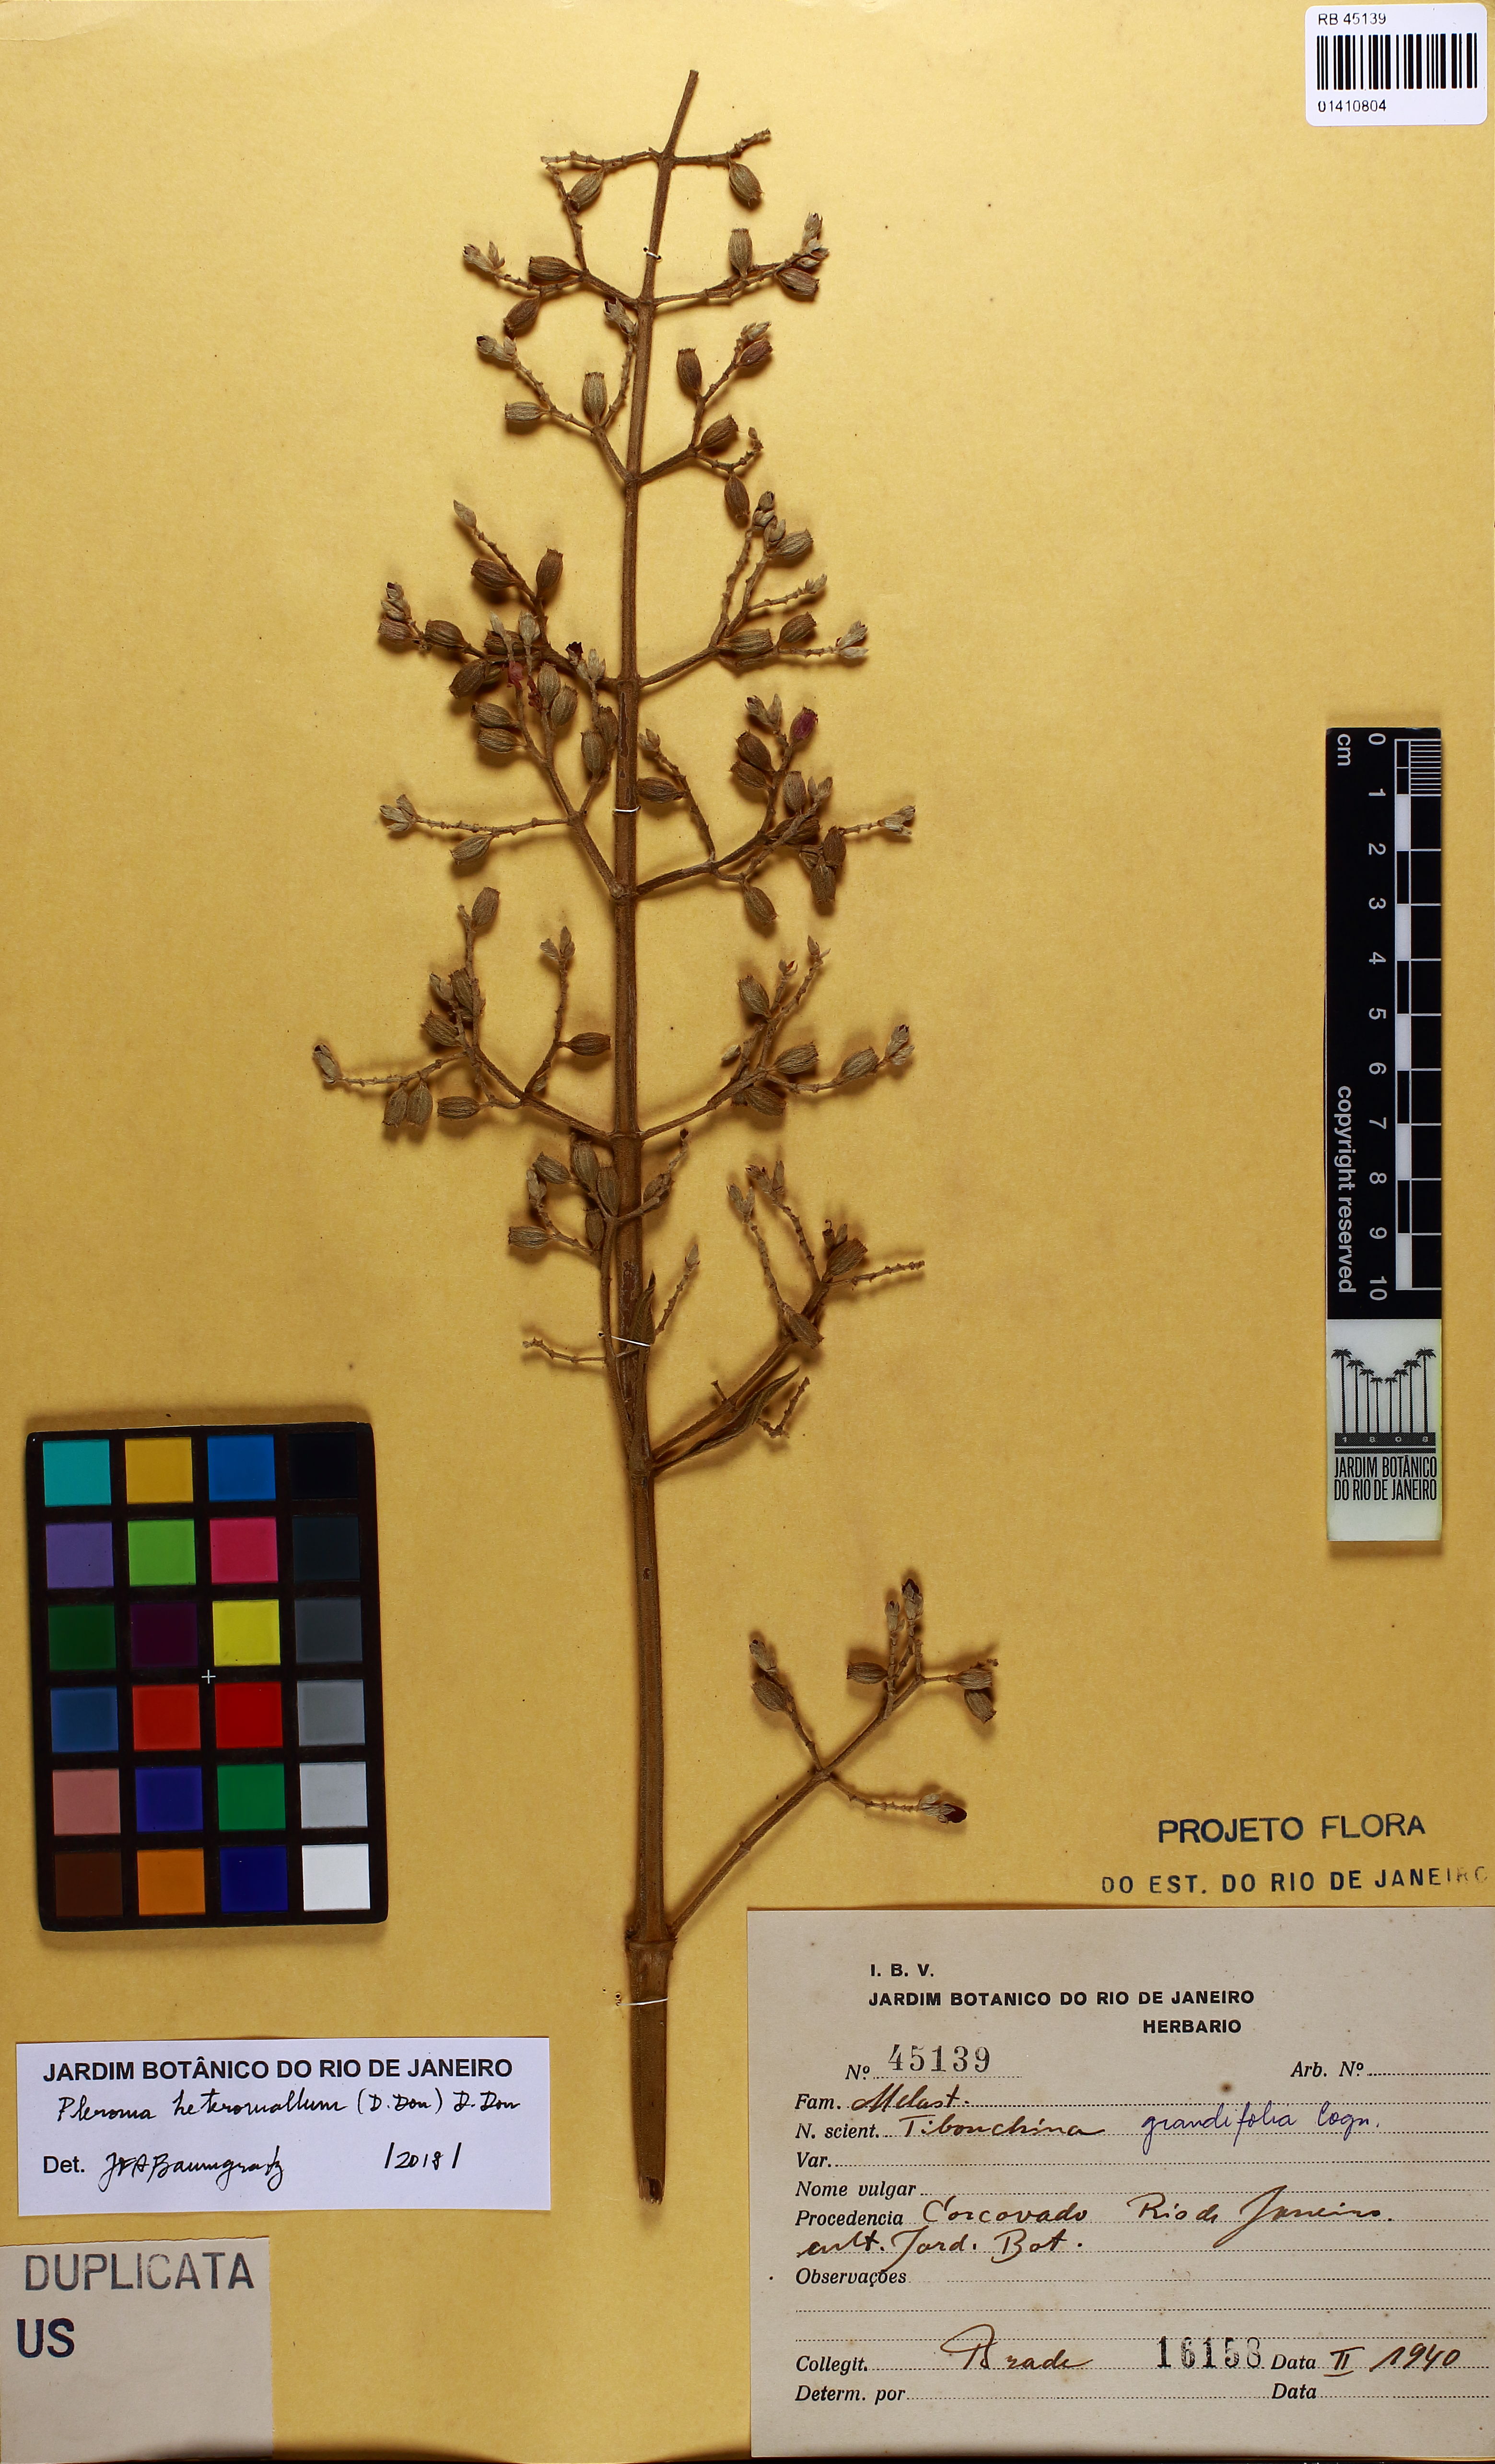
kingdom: Plantae
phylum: Tracheophyta
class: Magnoliopsida
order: Myrtales
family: Melastomataceae
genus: Pleroma
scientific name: Pleroma heteromallum
